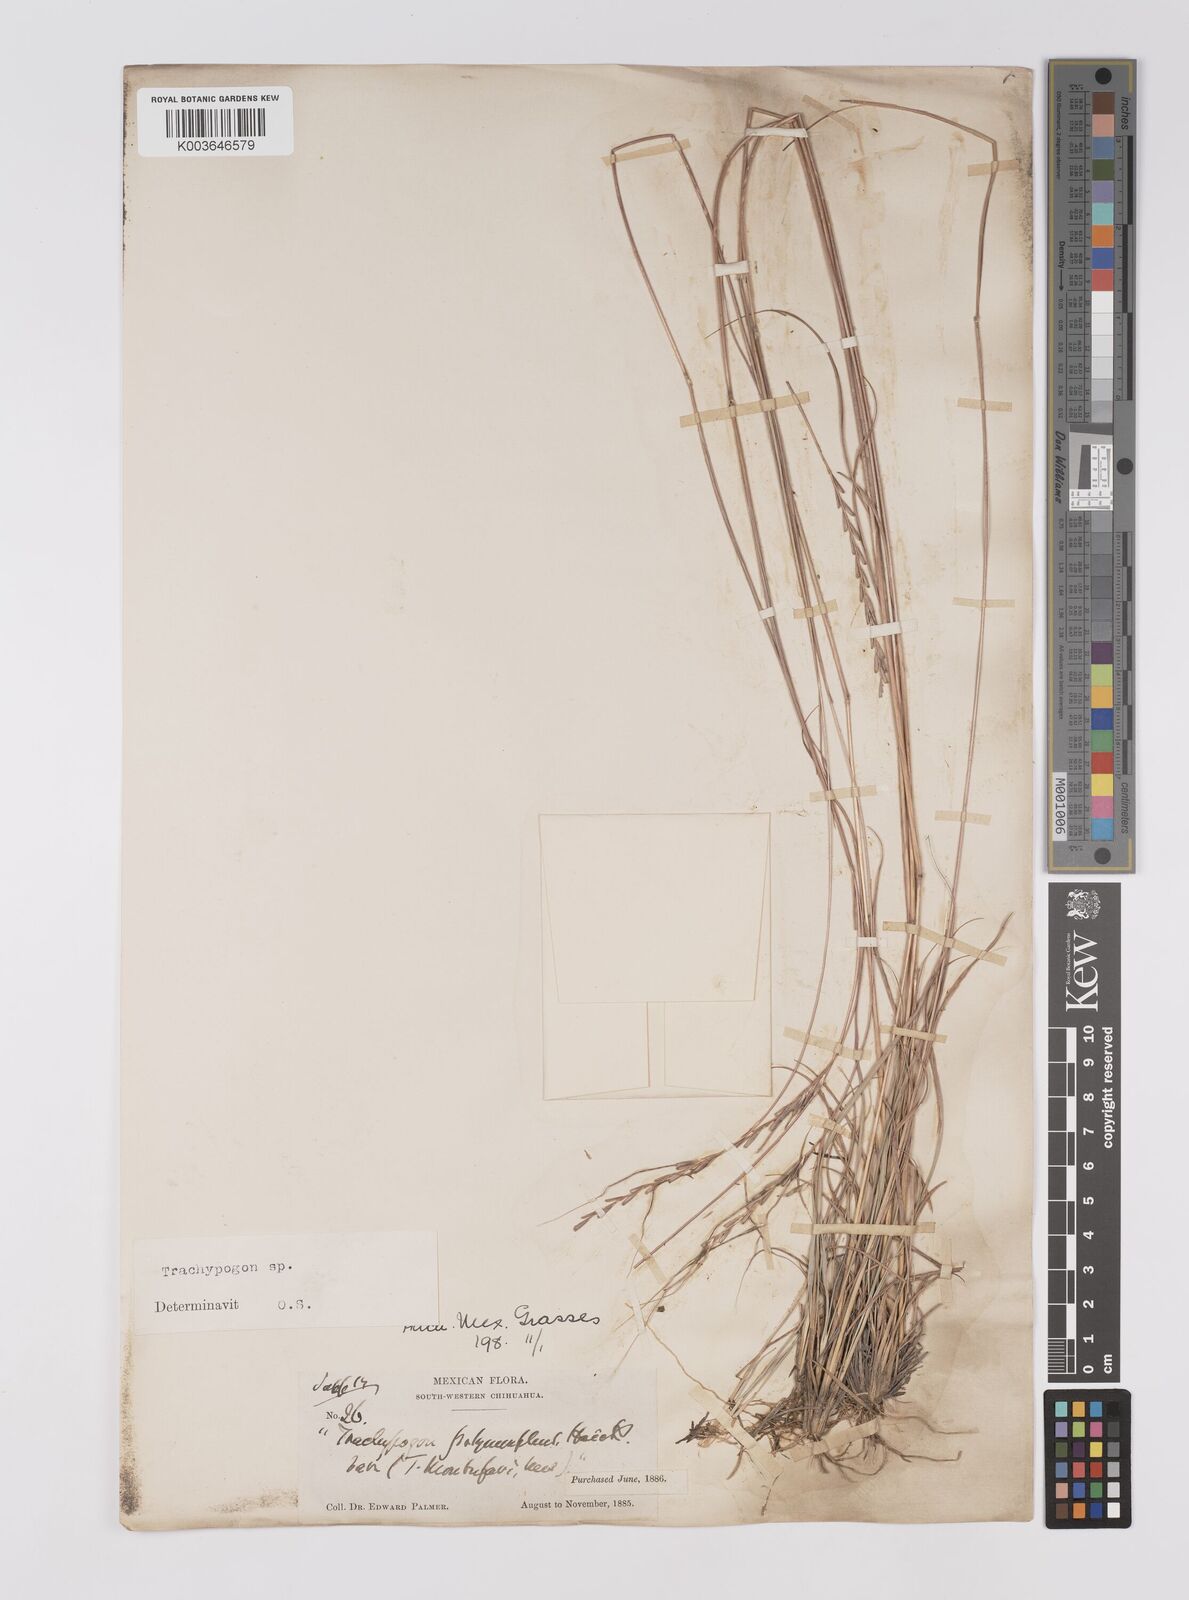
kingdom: Plantae
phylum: Tracheophyta
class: Liliopsida
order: Poales
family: Poaceae
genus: Trachypogon
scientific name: Trachypogon spicatus
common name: Crinkle-awn
